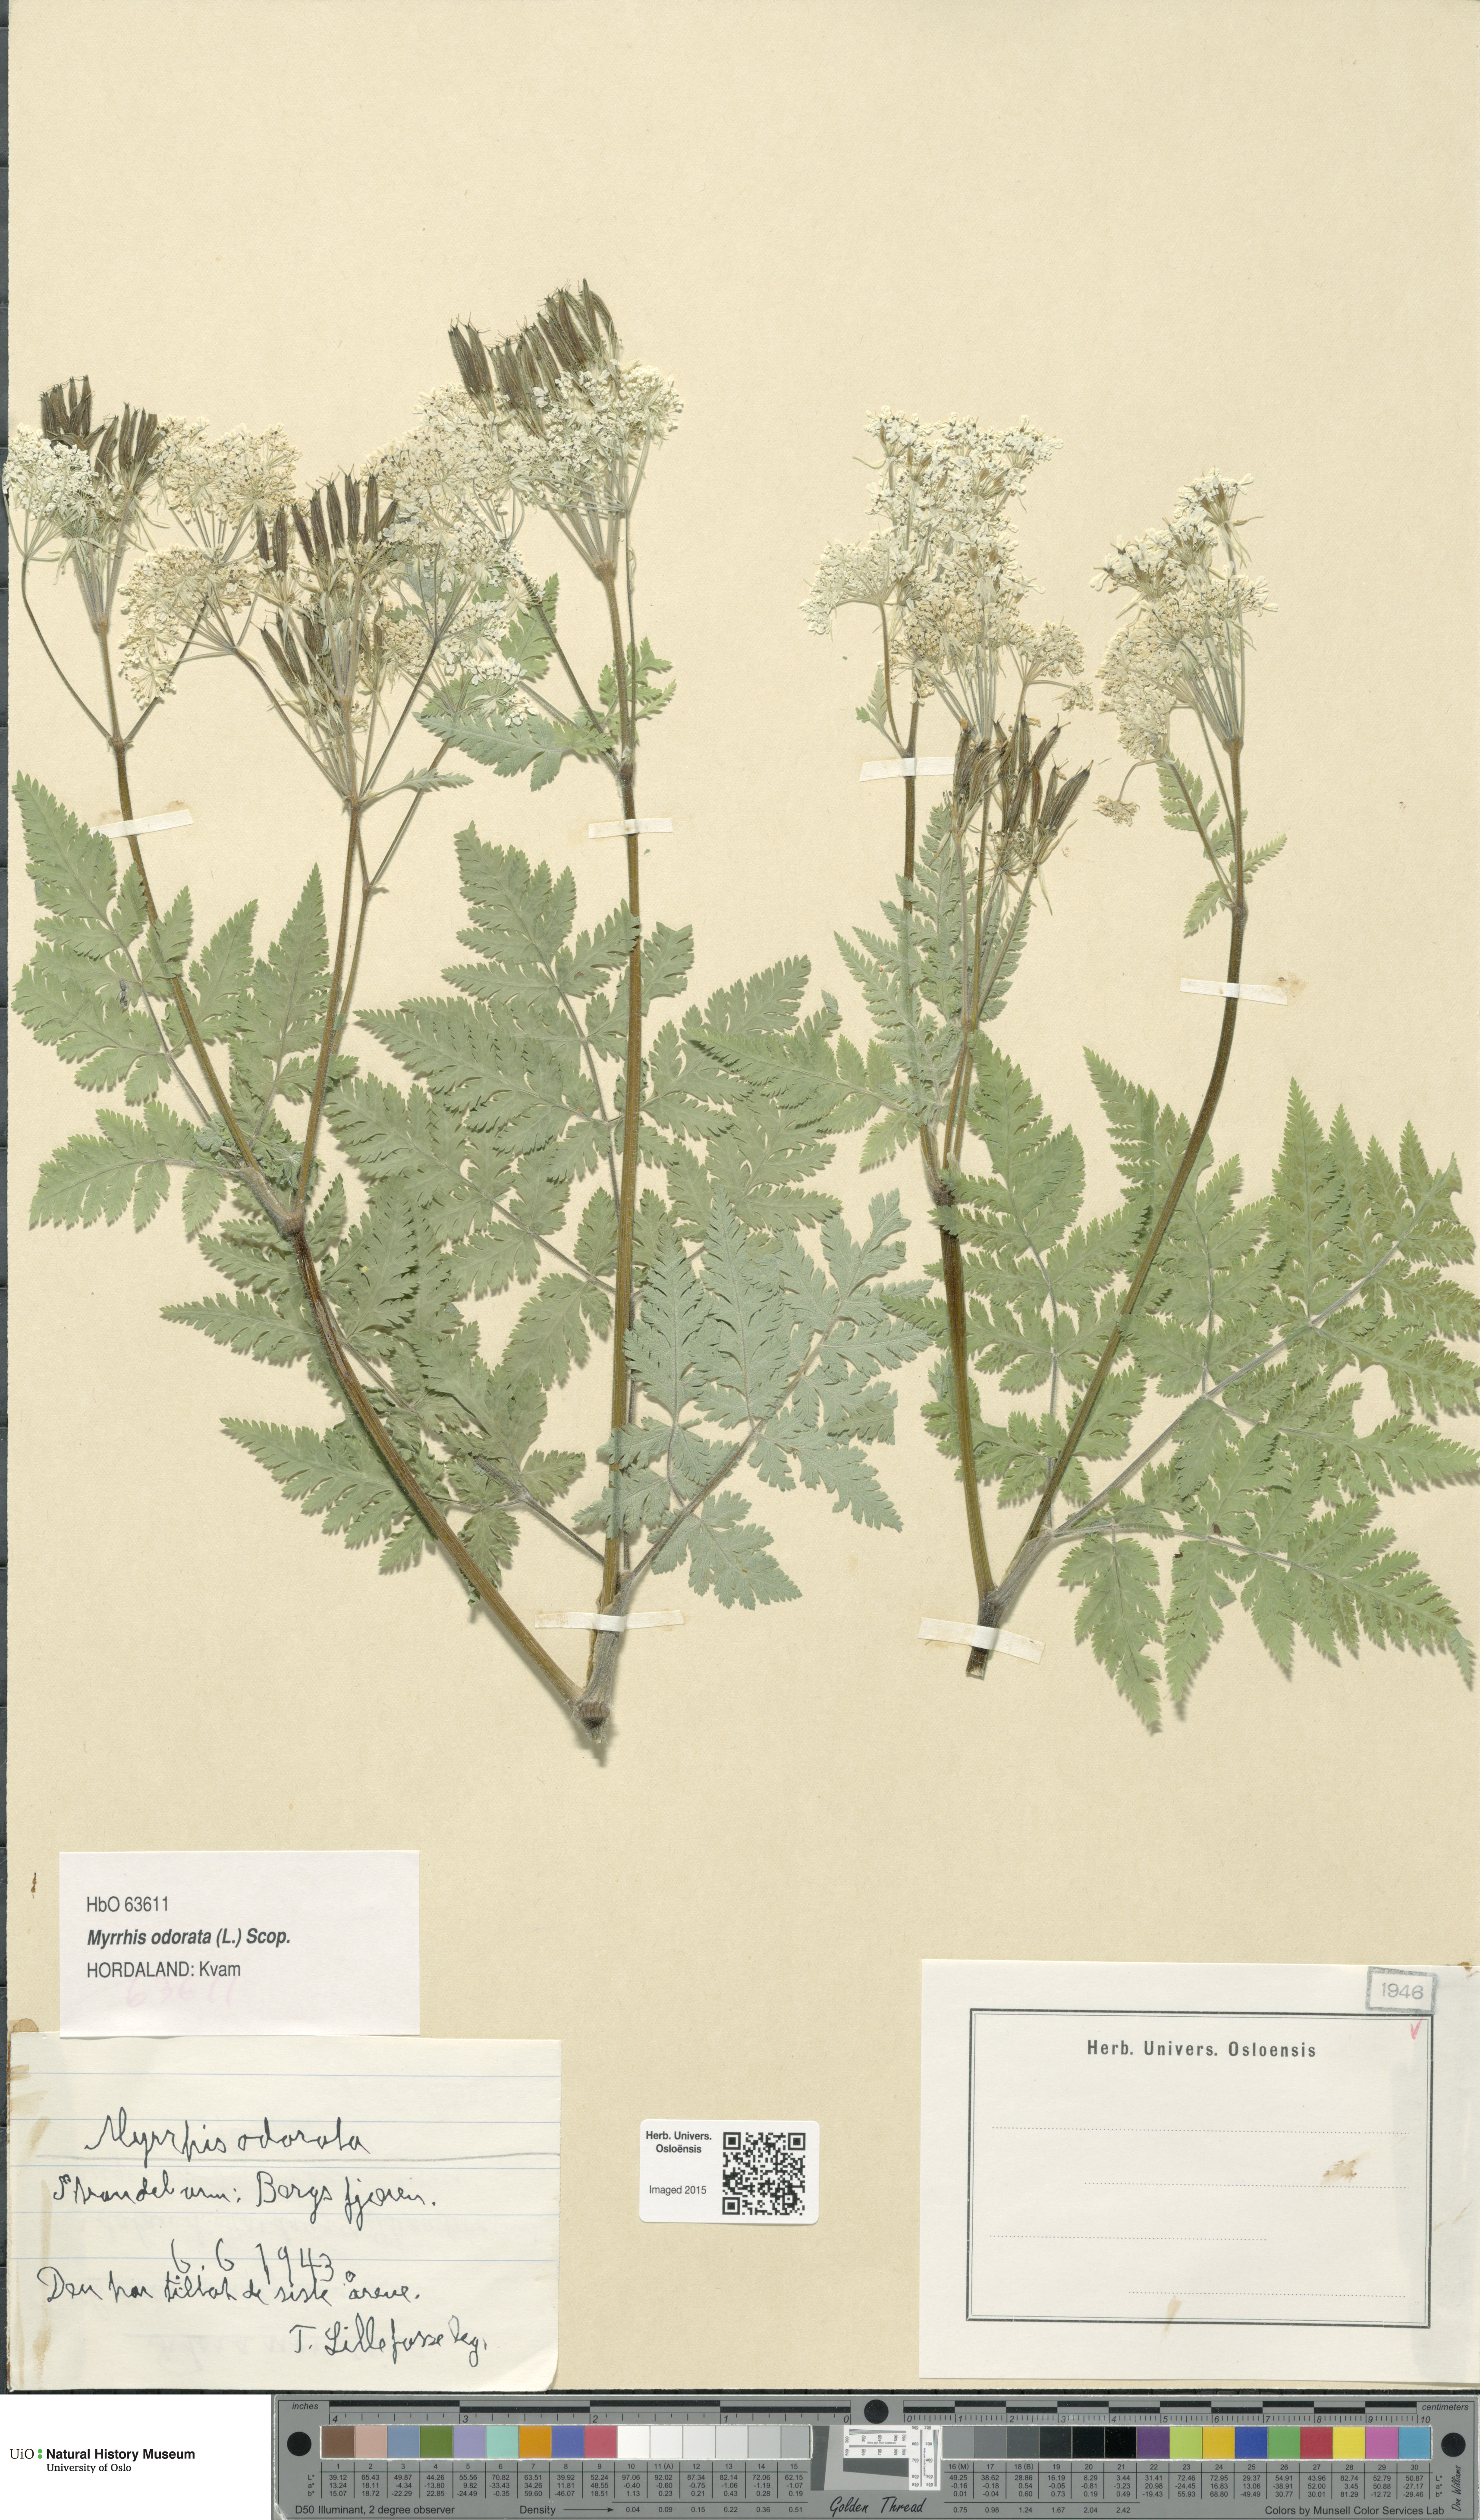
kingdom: Plantae
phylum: Tracheophyta
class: Magnoliopsida
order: Apiales
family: Apiaceae
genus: Myrrhis
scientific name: Myrrhis odorata
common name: Sweet cicely
